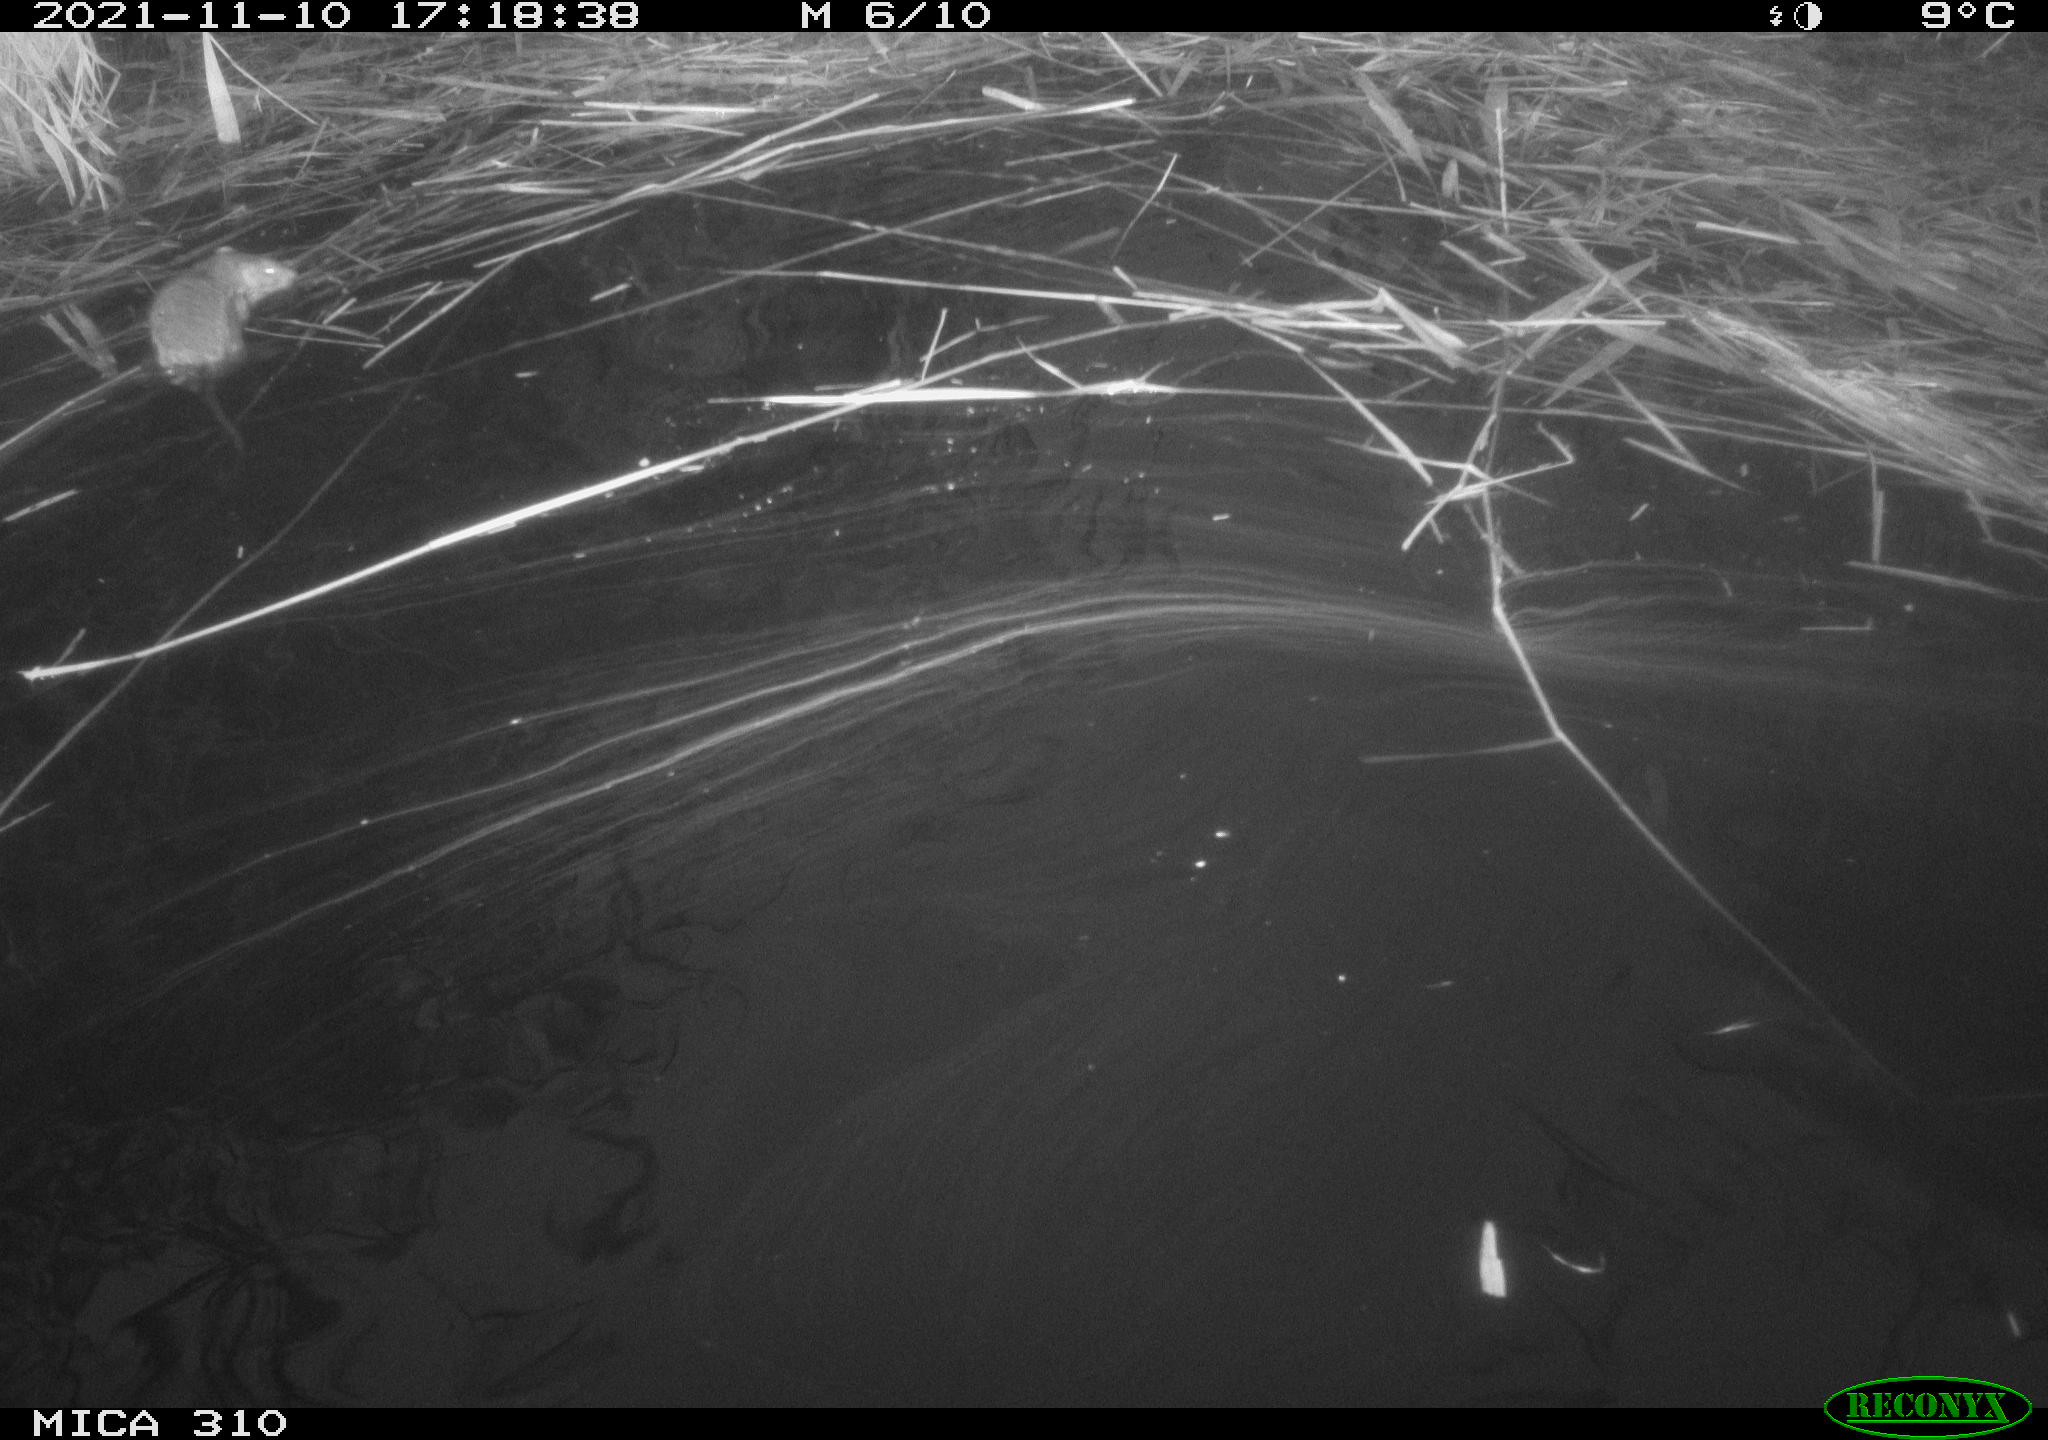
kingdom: Animalia
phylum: Chordata
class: Mammalia
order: Rodentia
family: Muridae
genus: Rattus
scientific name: Rattus norvegicus
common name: Brown rat
